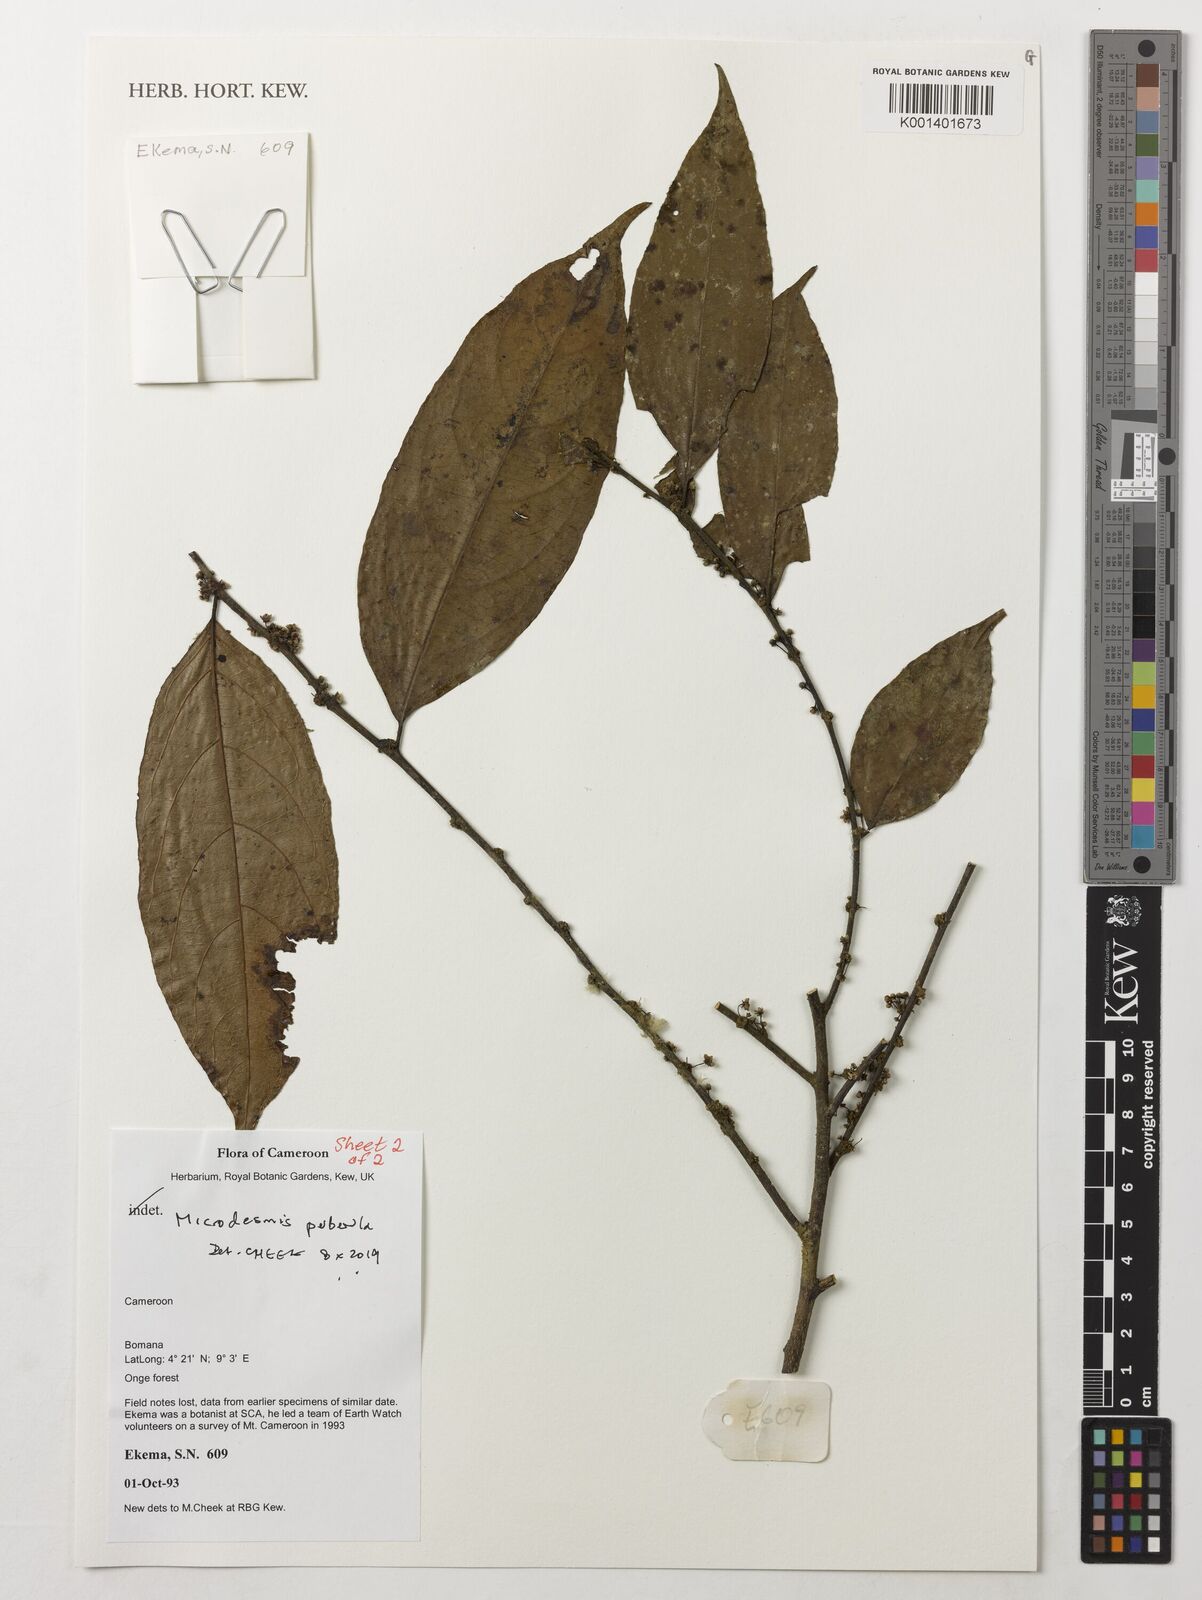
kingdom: Plantae
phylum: Tracheophyta
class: Magnoliopsida
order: Malpighiales
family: Pandaceae
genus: Microdesmis
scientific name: Microdesmis puberula
